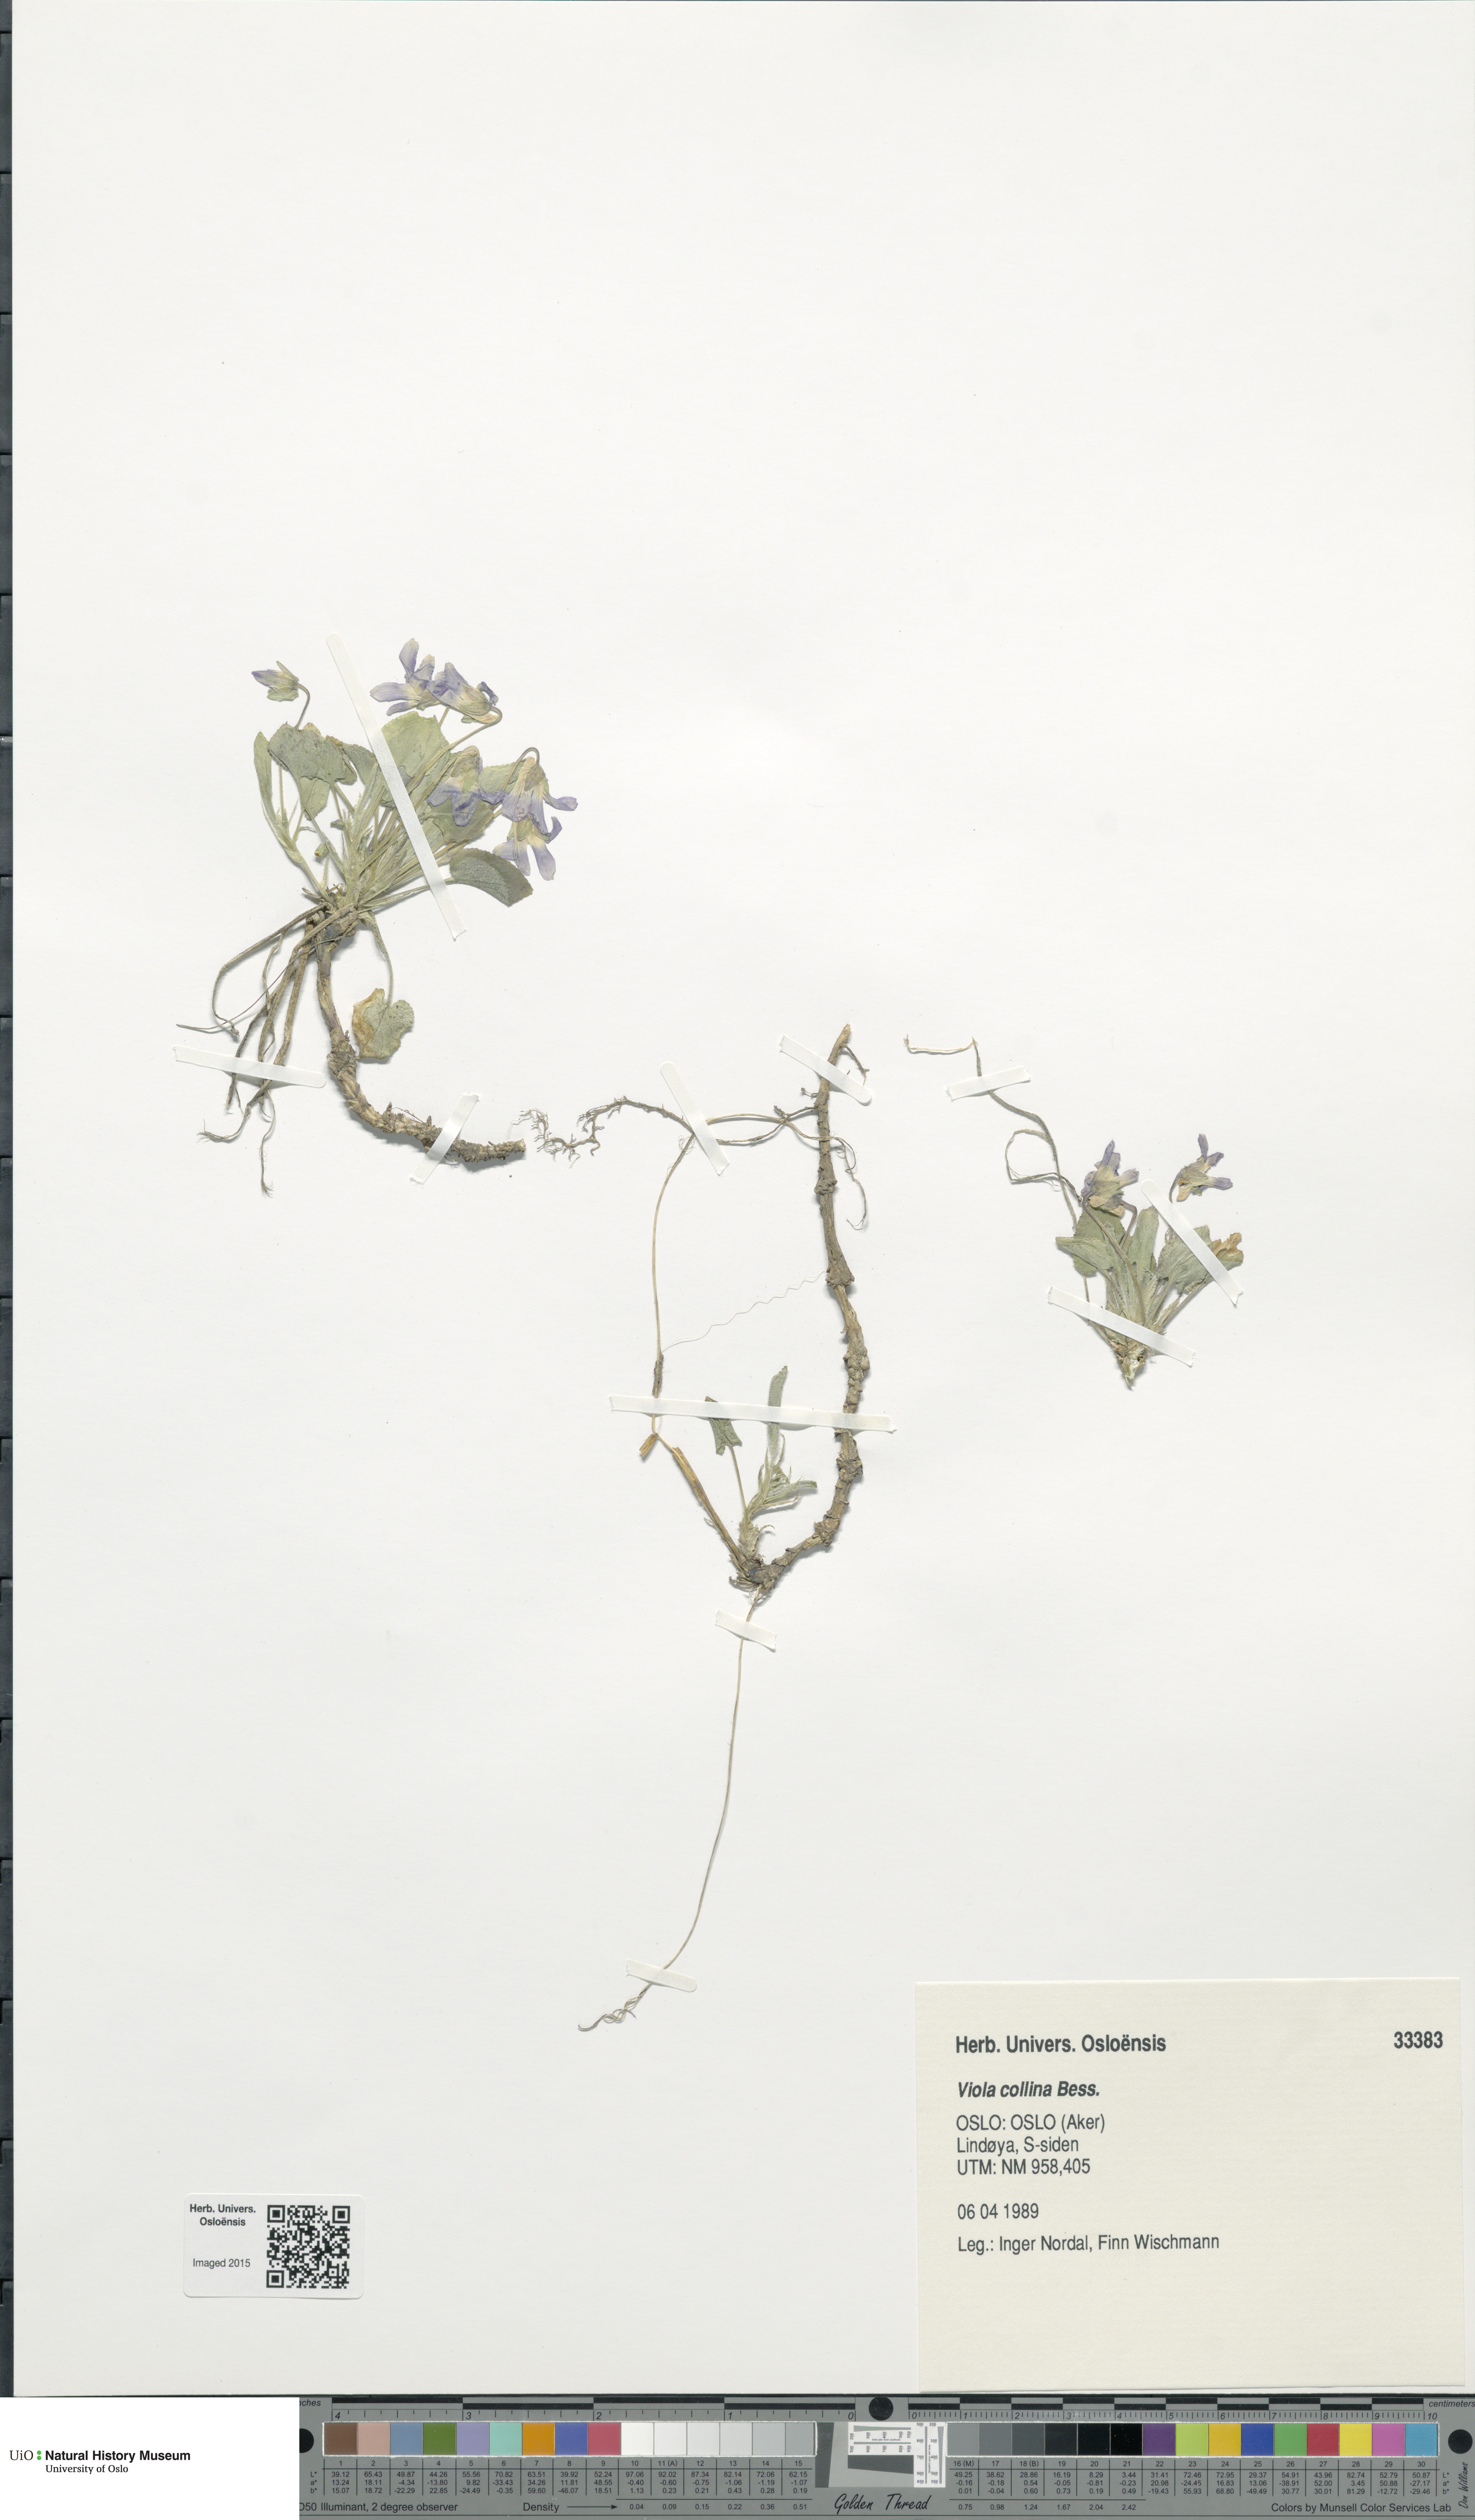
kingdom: Plantae
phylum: Tracheophyta
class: Magnoliopsida
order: Malpighiales
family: Violaceae
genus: Viola
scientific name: Viola collina
